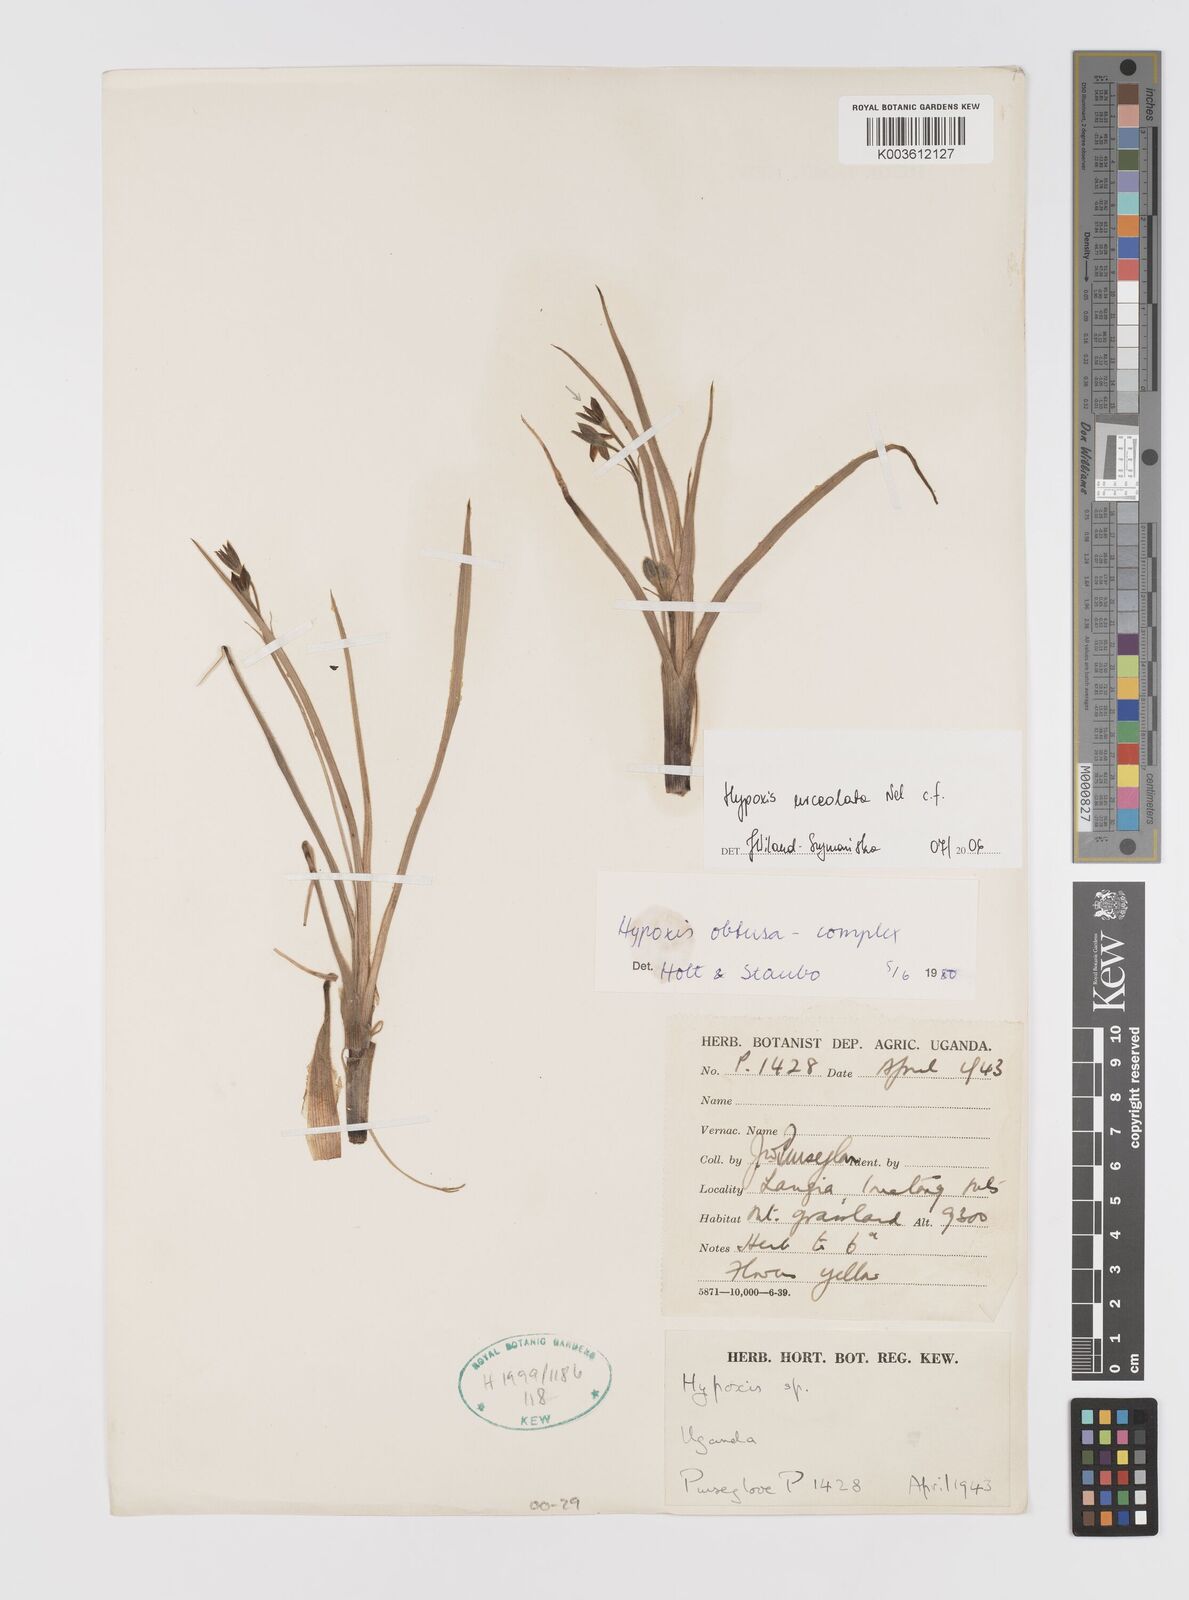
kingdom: Plantae
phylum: Tracheophyta
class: Liliopsida
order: Asparagales
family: Hypoxidaceae
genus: Hypoxis
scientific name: Hypoxis urceolata
